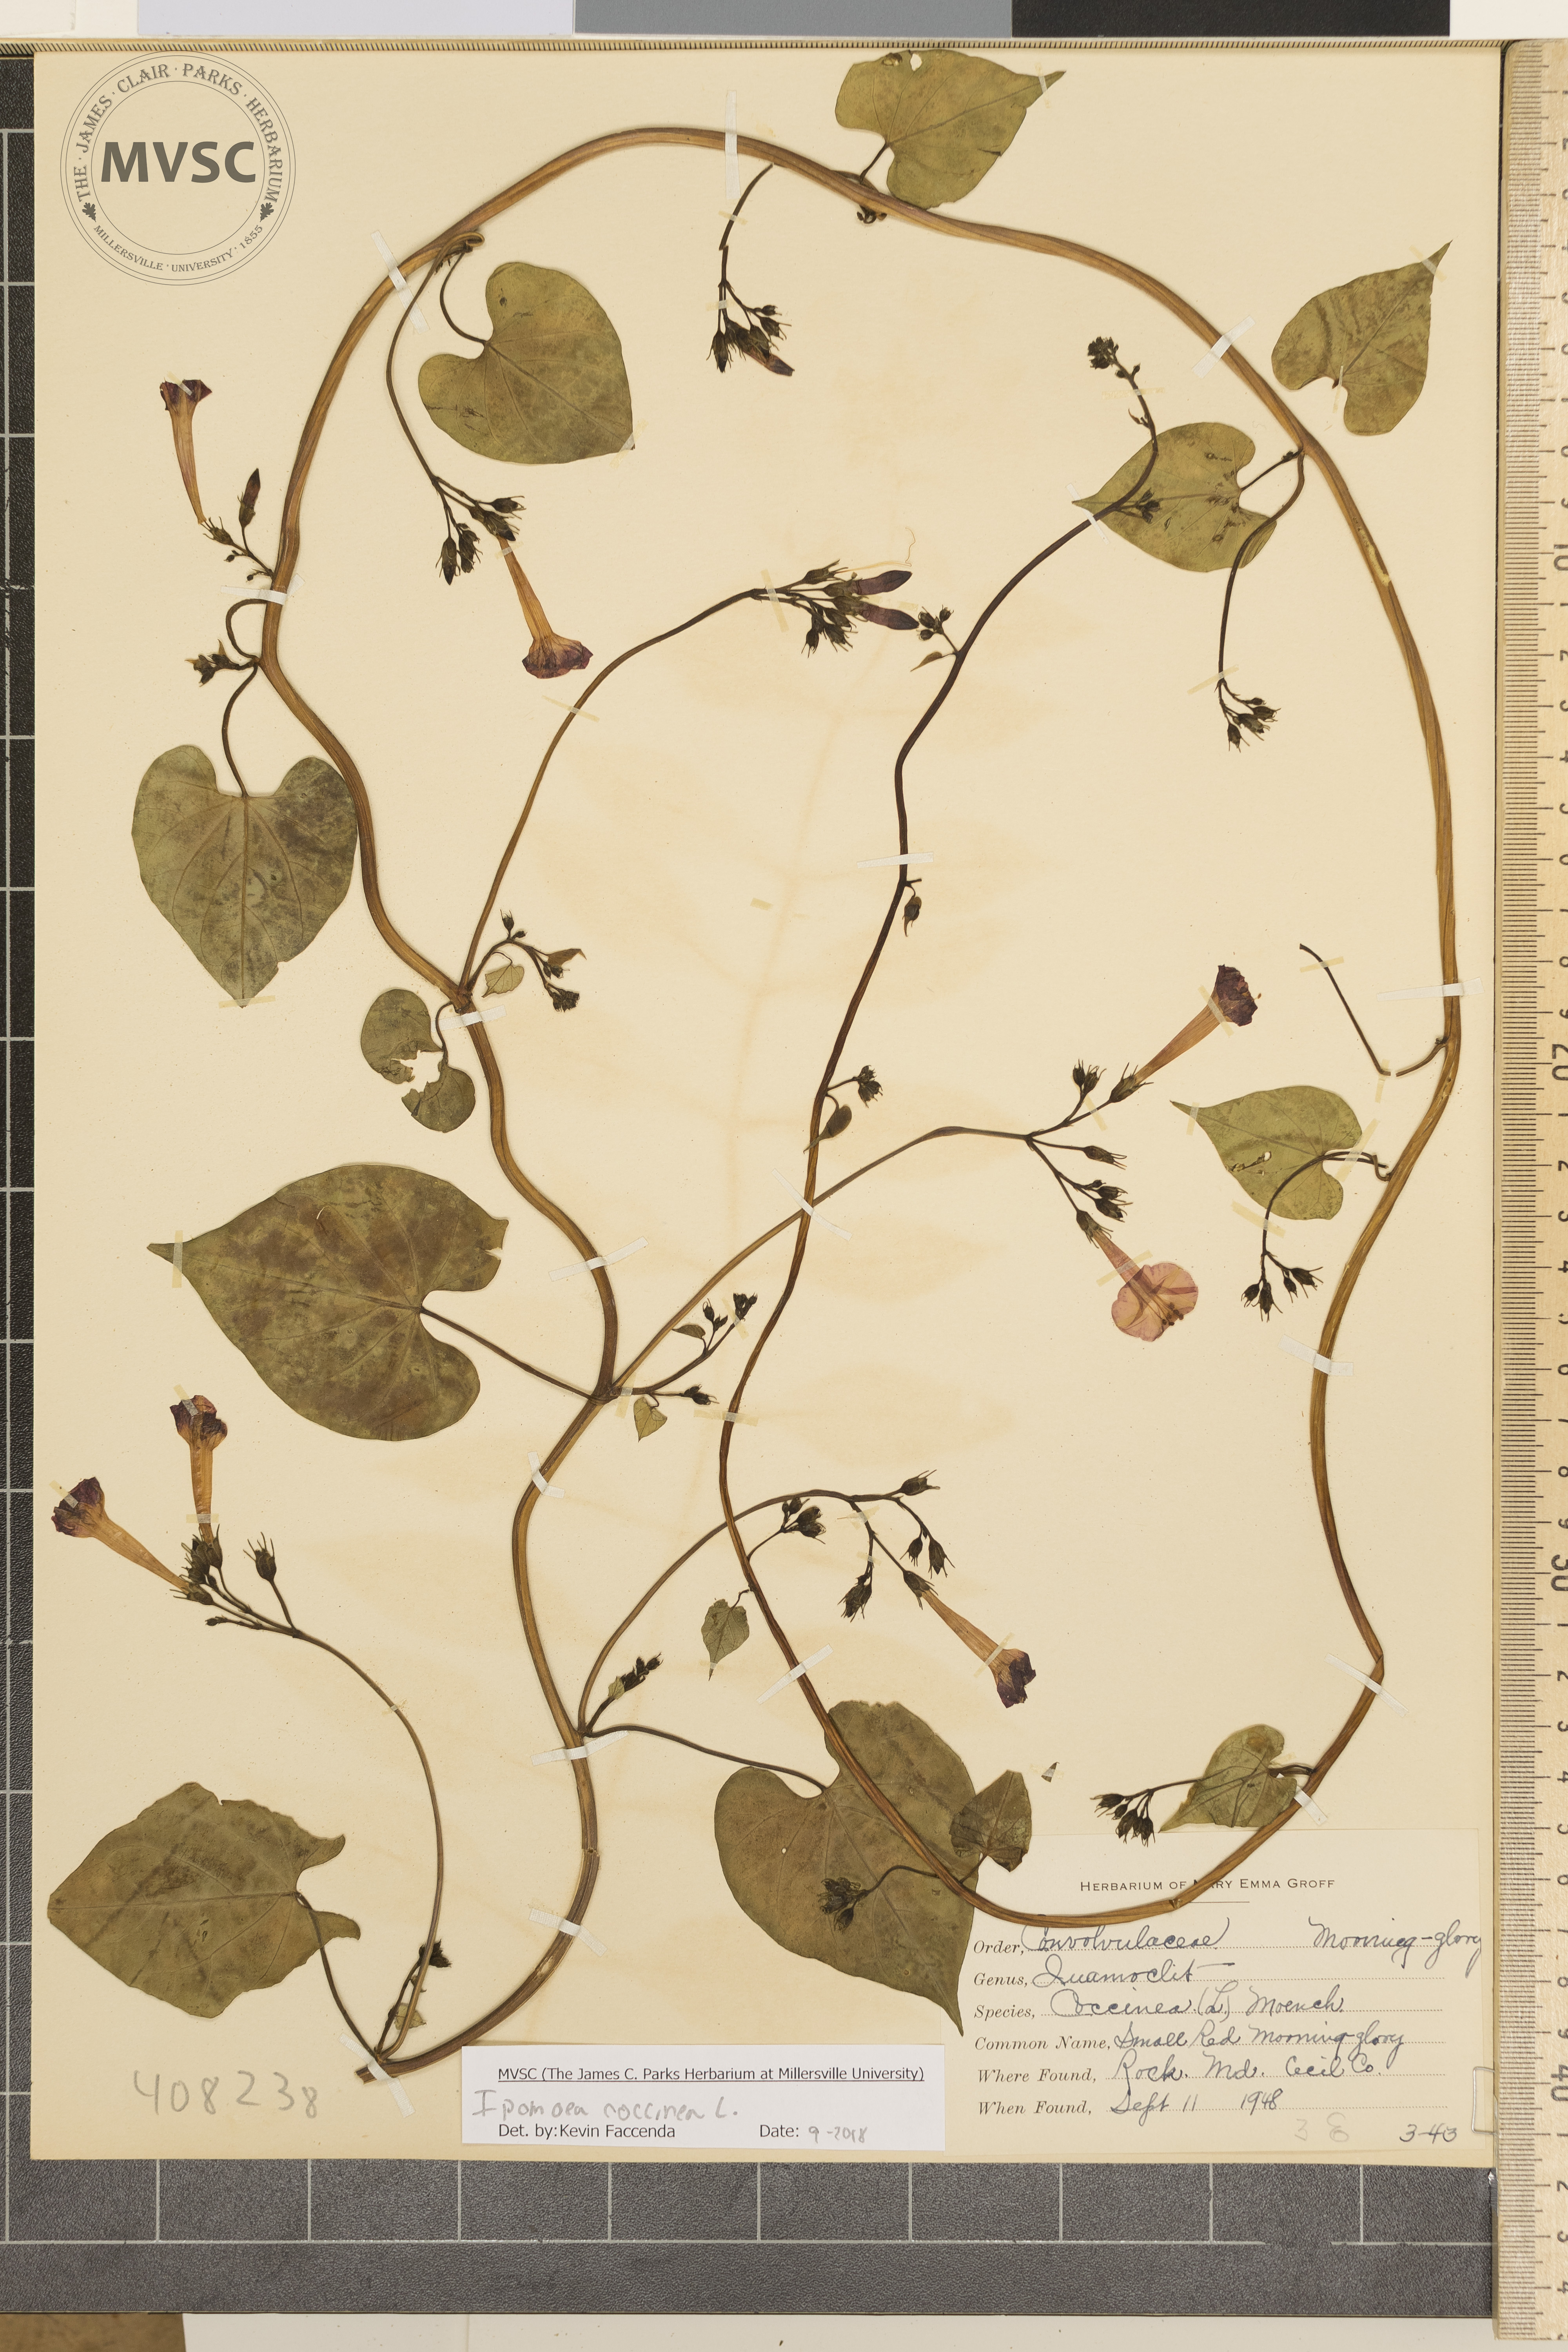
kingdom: Plantae
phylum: Tracheophyta
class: Magnoliopsida
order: Solanales
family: Convolvulaceae
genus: Ipomoea
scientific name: Ipomoea coccinea
